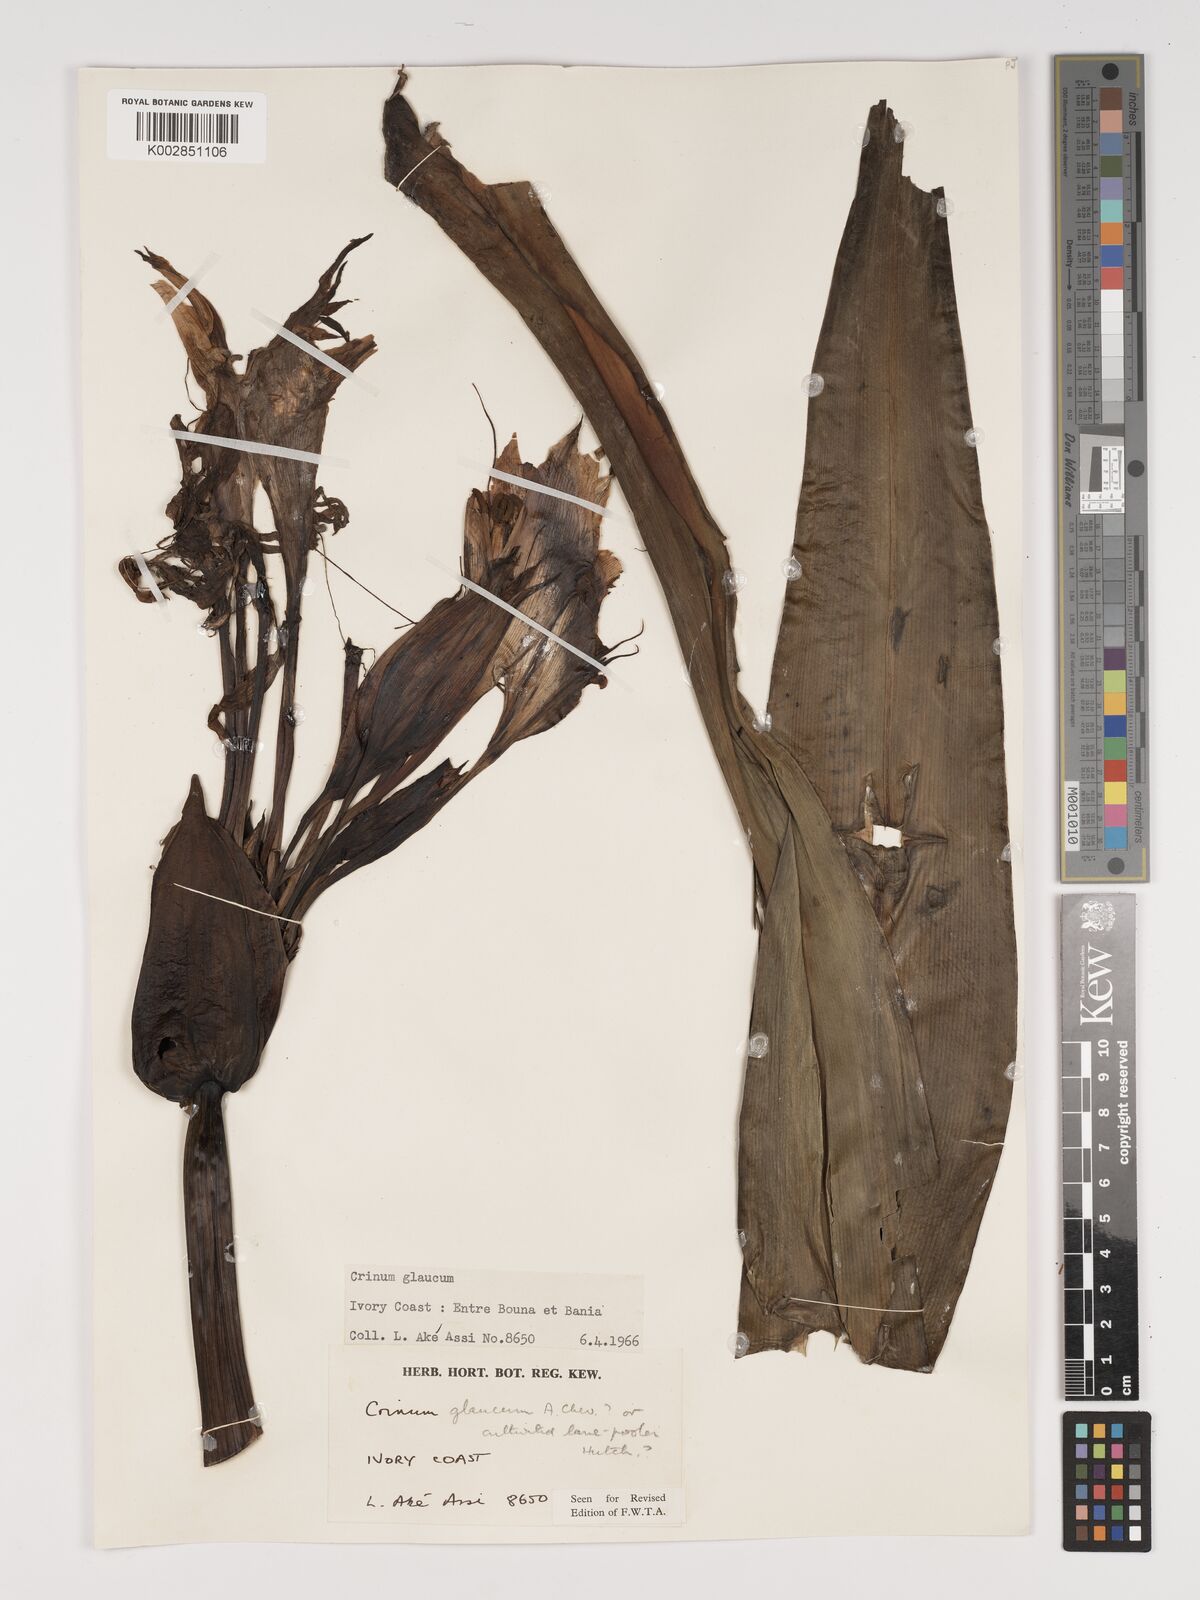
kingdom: Plantae
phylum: Tracheophyta
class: Liliopsida
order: Asparagales
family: Amaryllidaceae
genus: Crinum
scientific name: Crinum
